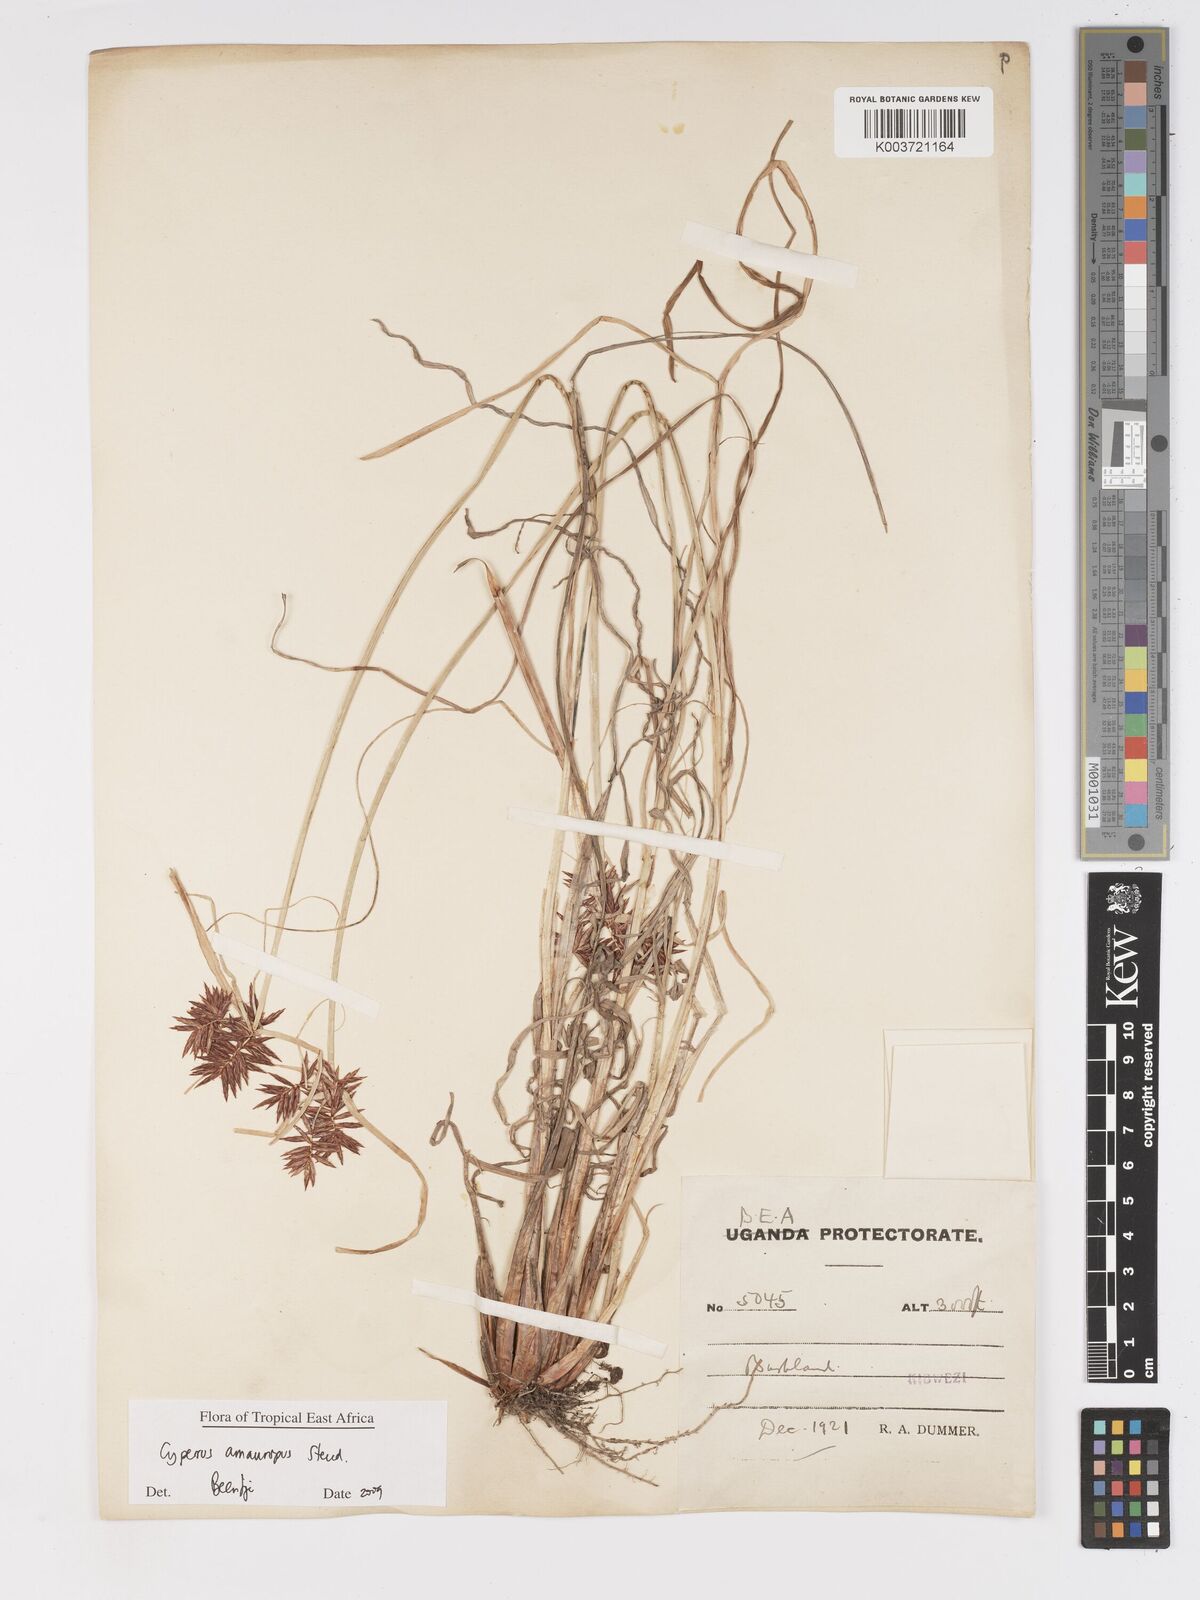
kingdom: Plantae
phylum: Tracheophyta
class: Liliopsida
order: Poales
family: Cyperaceae
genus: Cyperus
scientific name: Cyperus amauropus
